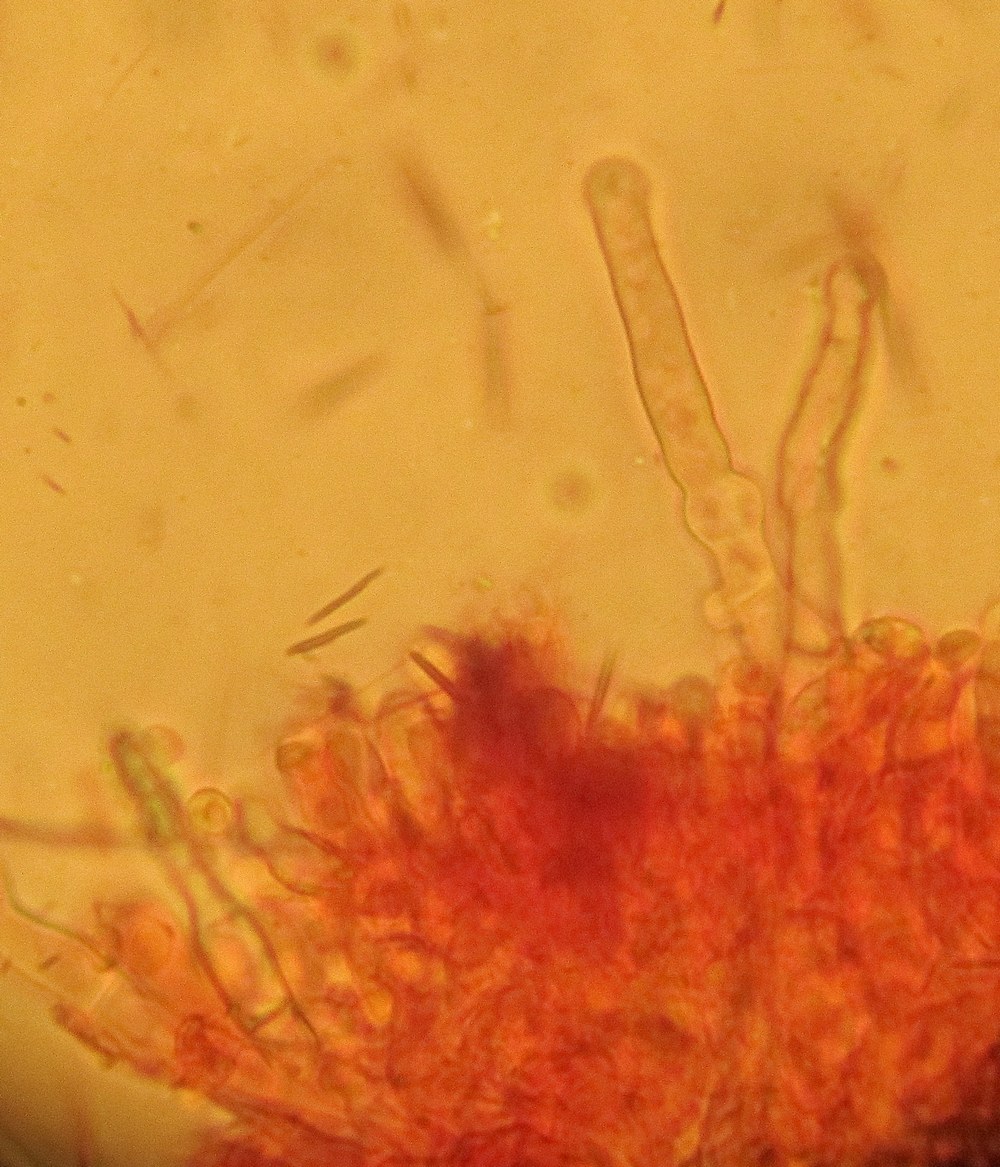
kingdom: Fungi
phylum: Basidiomycota
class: Agaricomycetes
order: Hymenochaetales
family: Hyphodontiaceae
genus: Hyphodontia
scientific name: Hyphodontia alutaria
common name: flaskerenser-nålehinde
